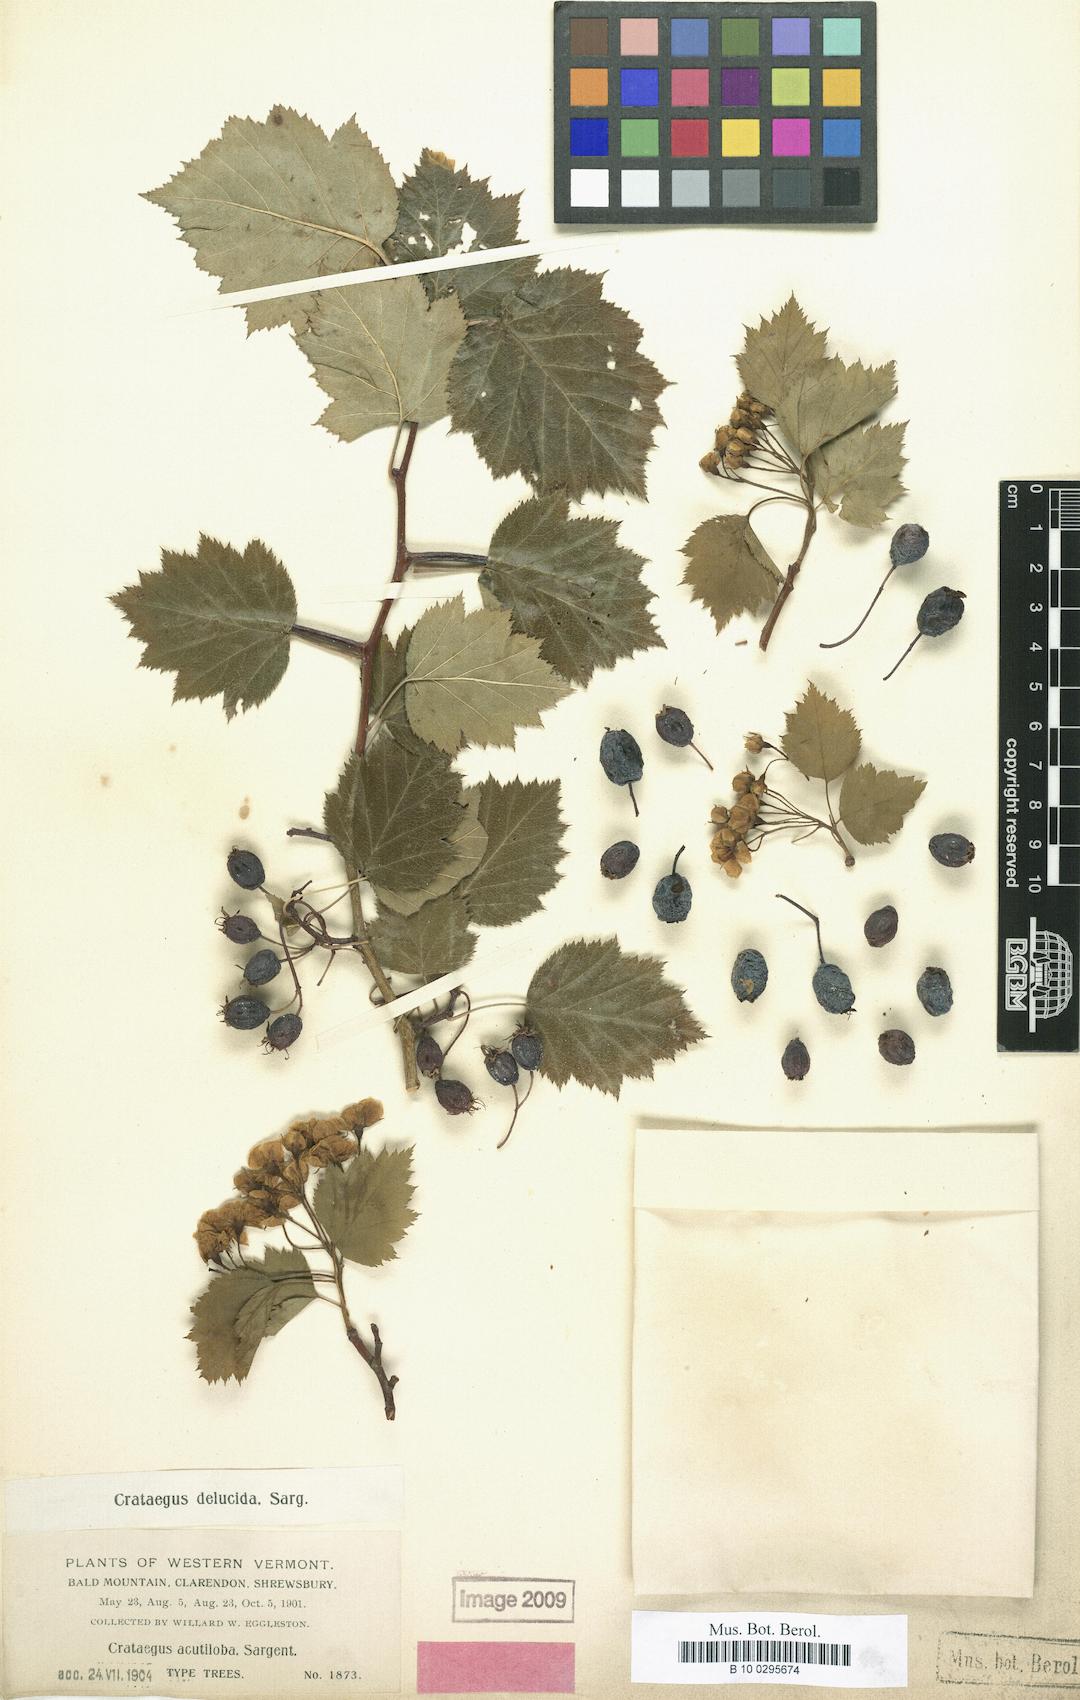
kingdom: Plantae
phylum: Tracheophyta
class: Magnoliopsida
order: Rosales
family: Rosaceae
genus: Crataegus
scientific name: Crataegus delucida
